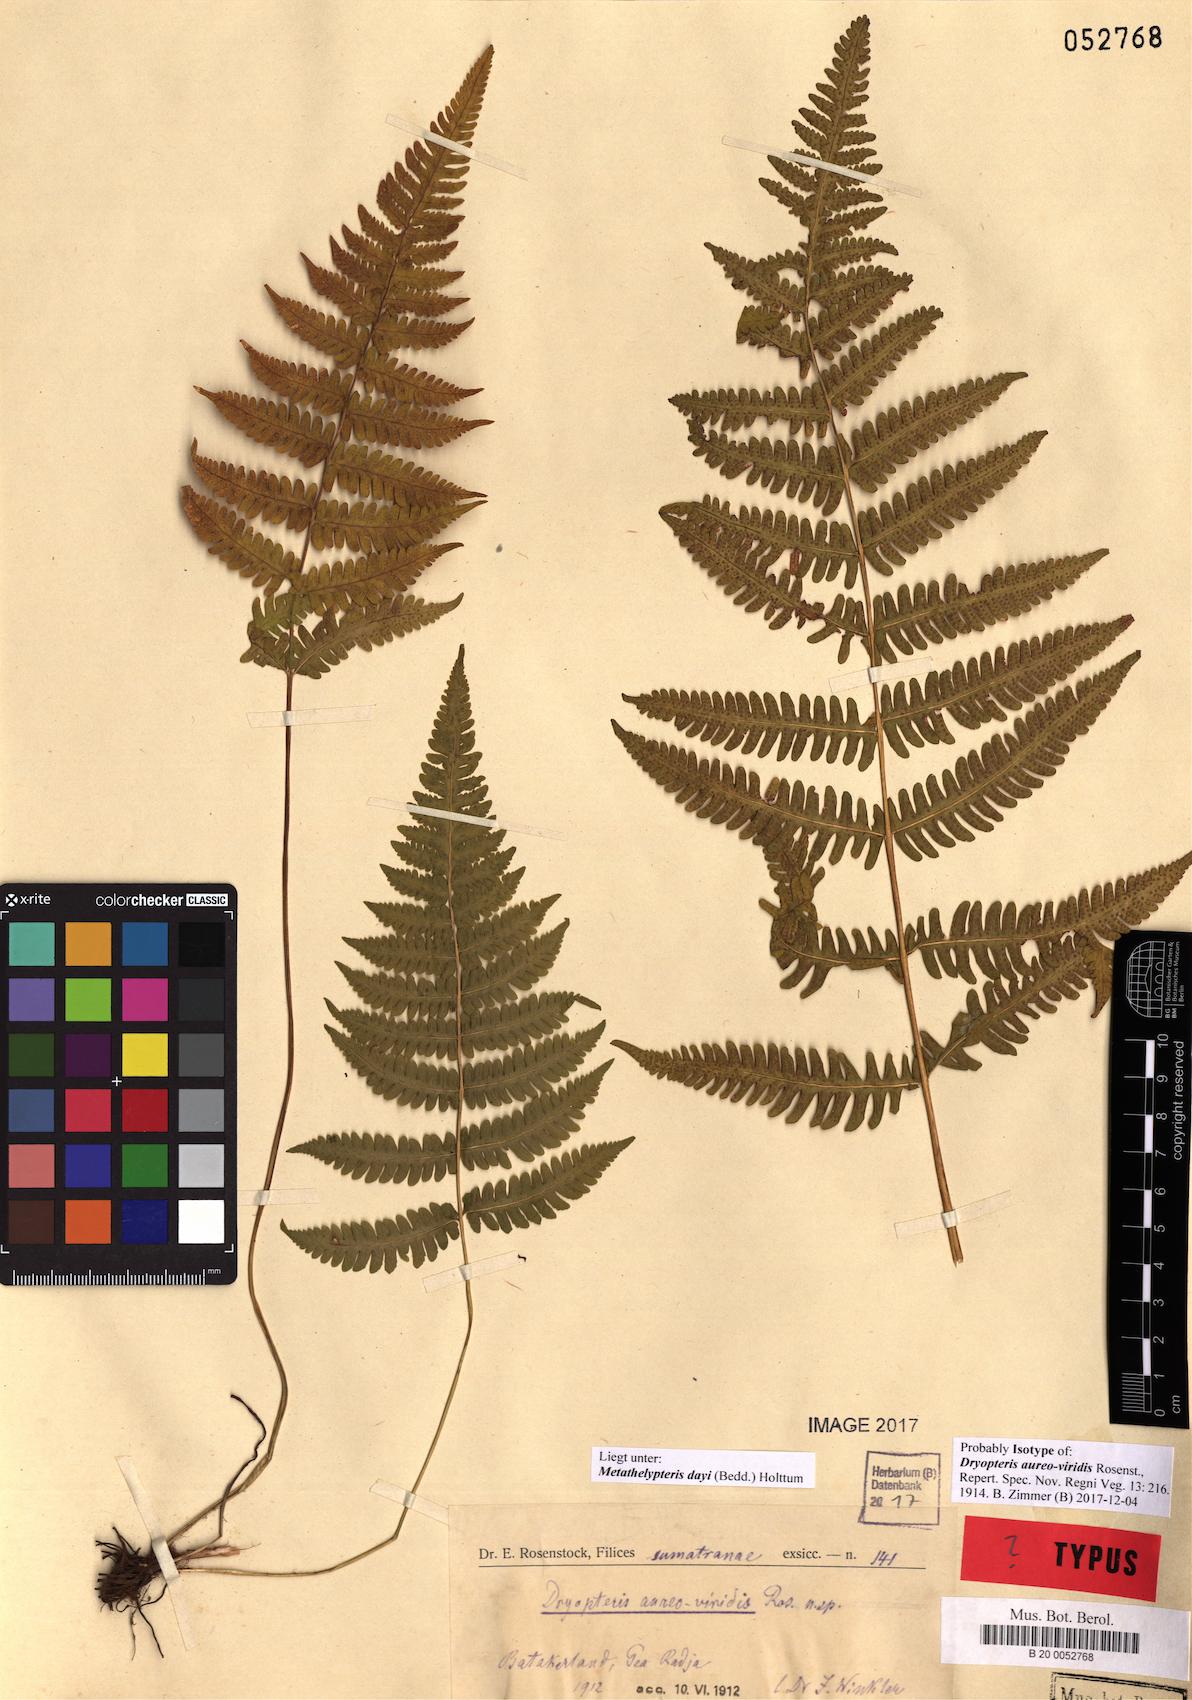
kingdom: Plantae
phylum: Tracheophyta
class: Polypodiopsida
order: Polypodiales
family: Thelypteridaceae
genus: Metathelypteris
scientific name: Metathelypteris dayi
